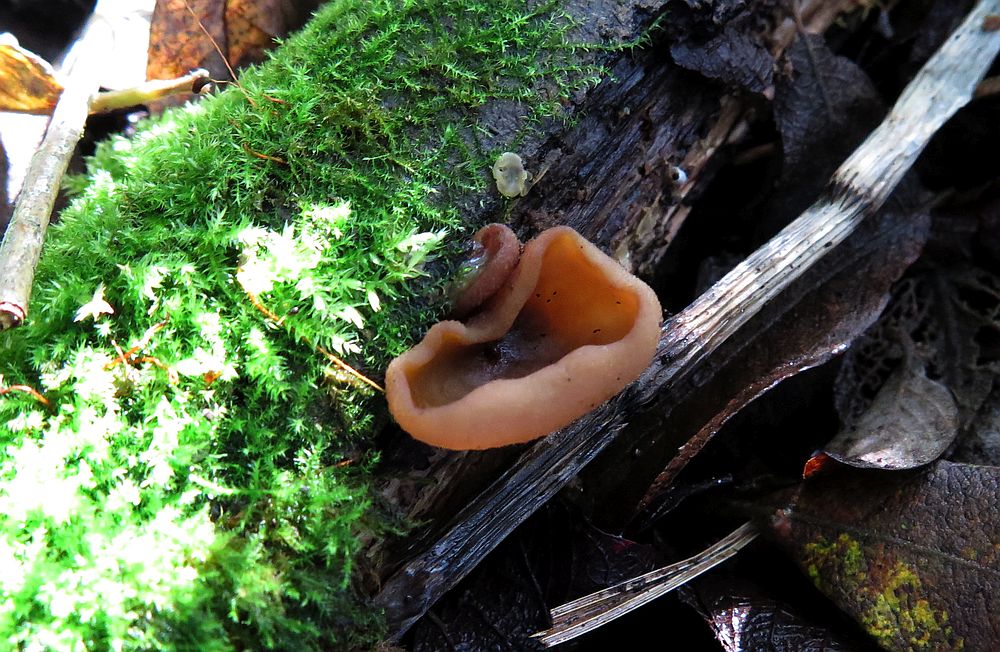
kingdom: Fungi
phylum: Ascomycota
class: Pezizomycetes
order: Pezizales
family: Pezizaceae
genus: Peziza
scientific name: Peziza
